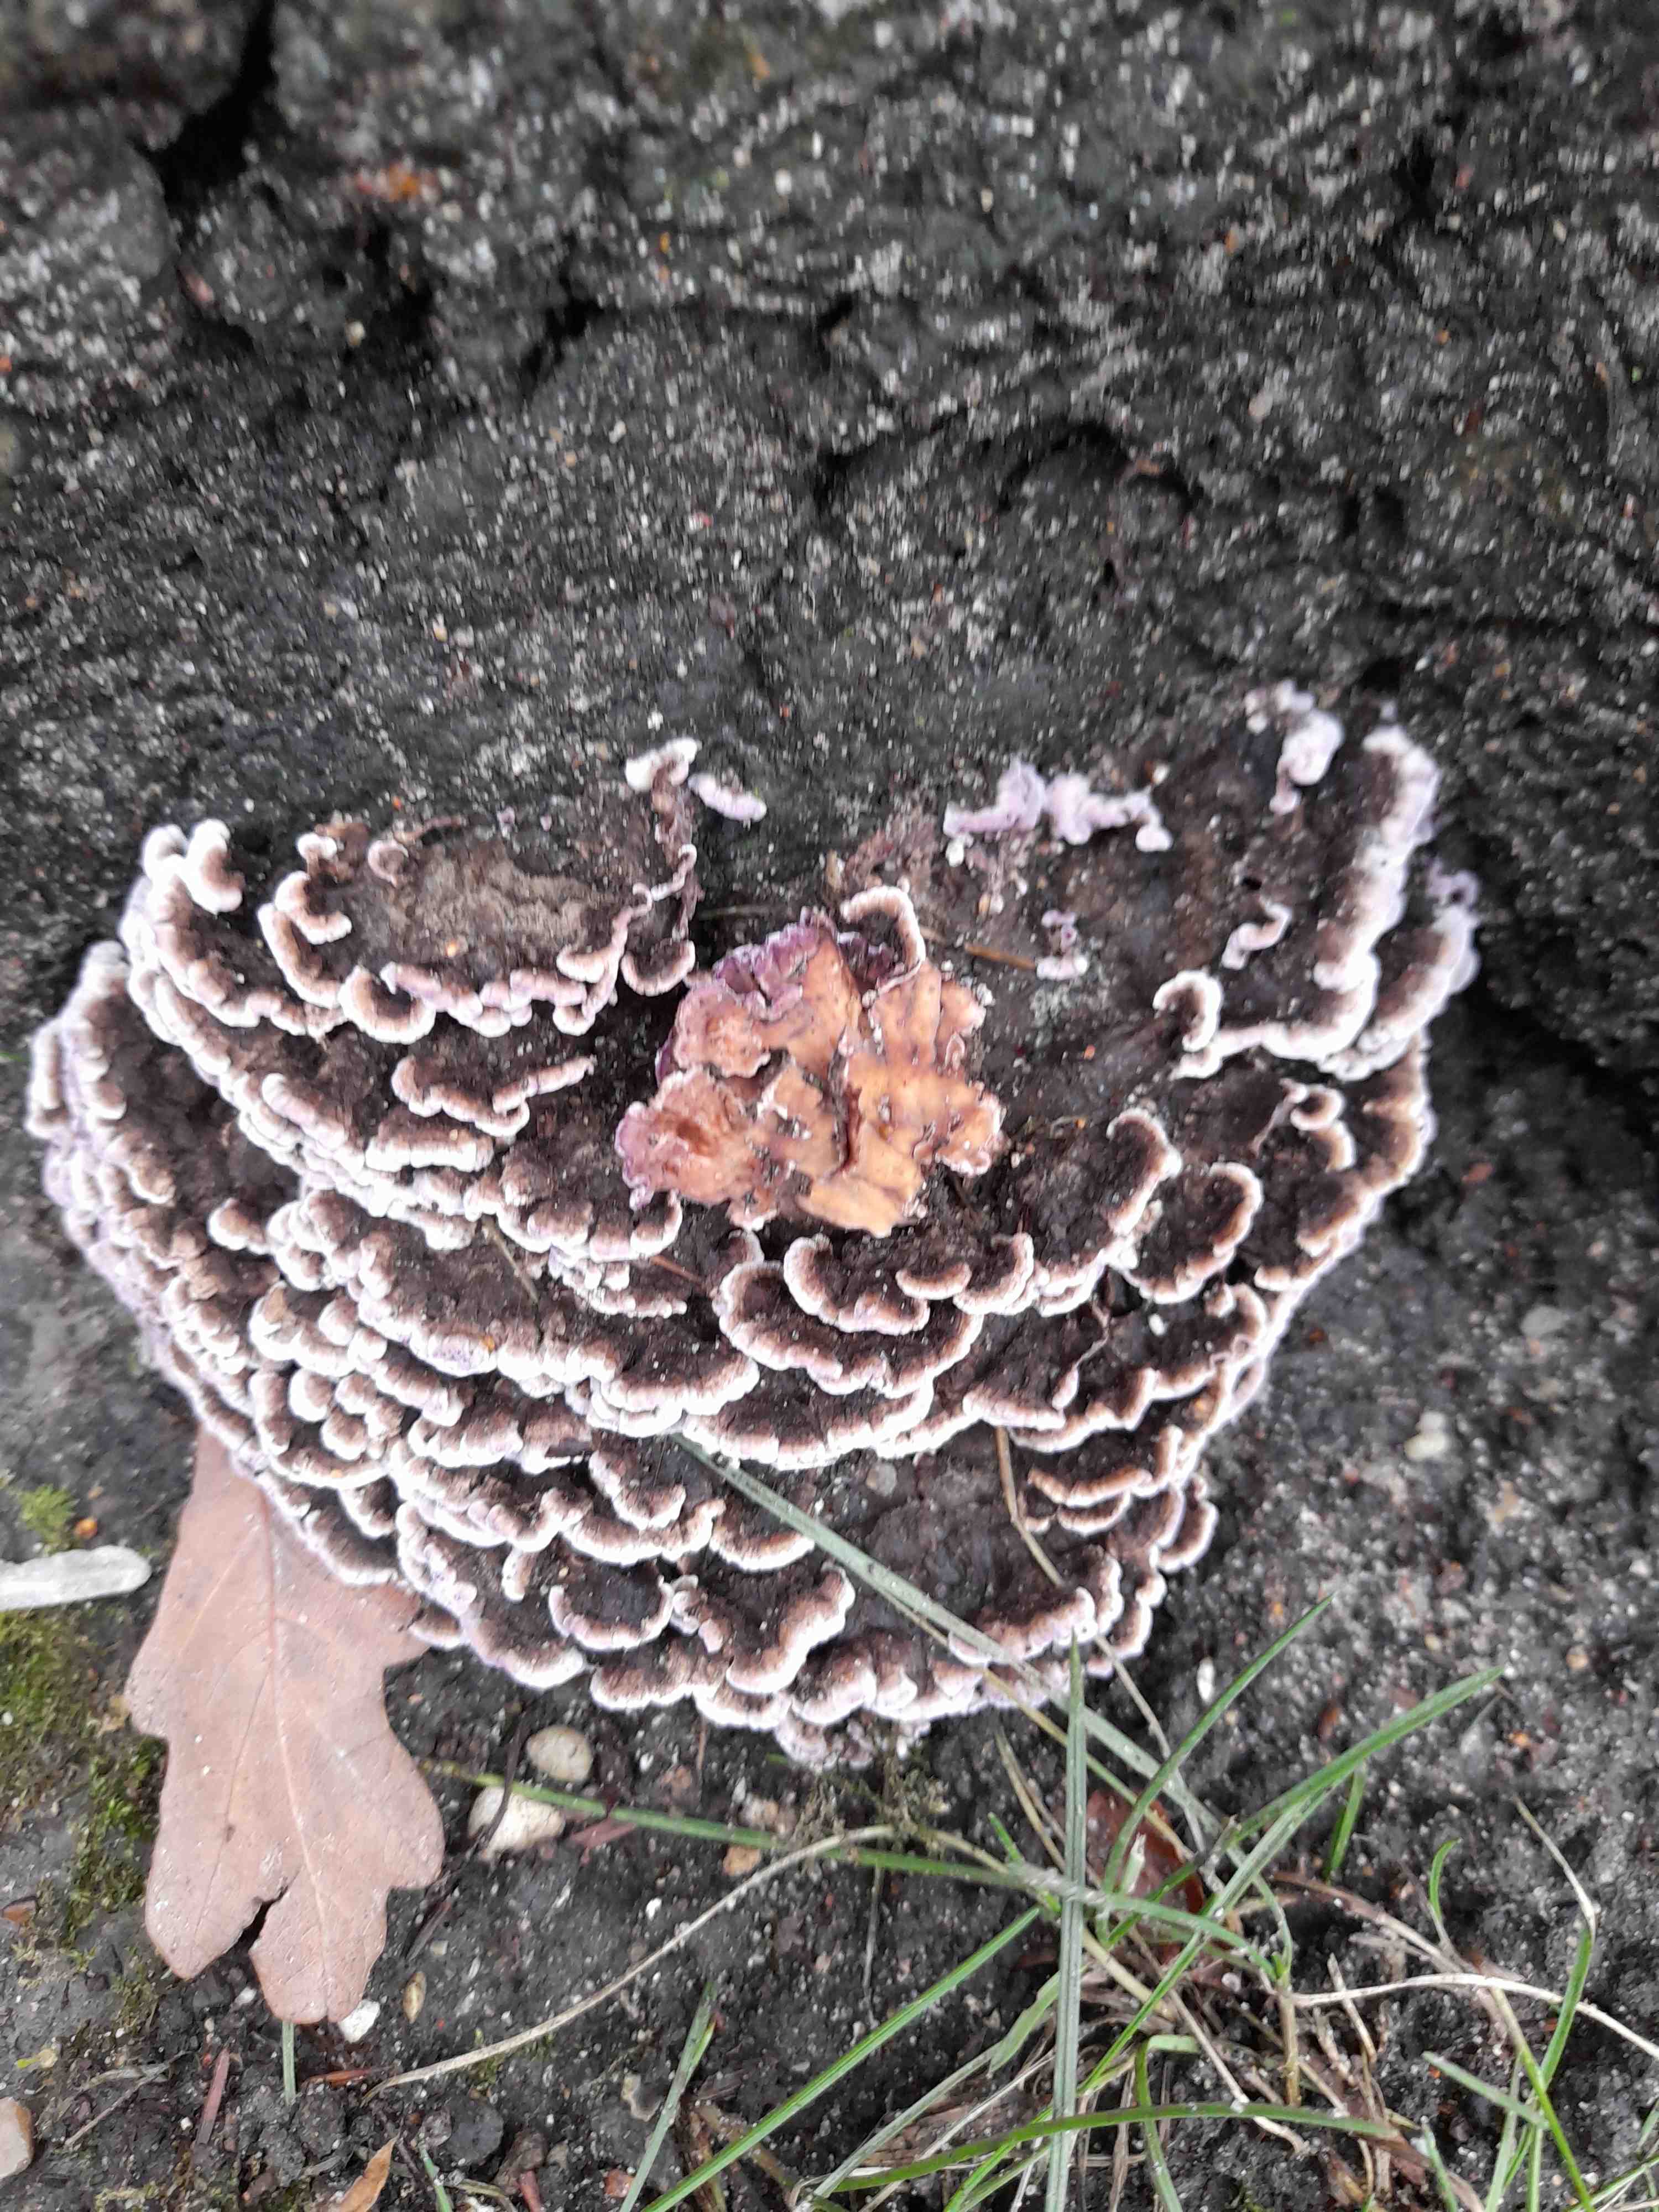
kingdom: Fungi
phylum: Basidiomycota
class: Agaricomycetes
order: Agaricales
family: Cyphellaceae
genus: Chondrostereum
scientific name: Chondrostereum purpureum
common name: purpurlædersvamp
